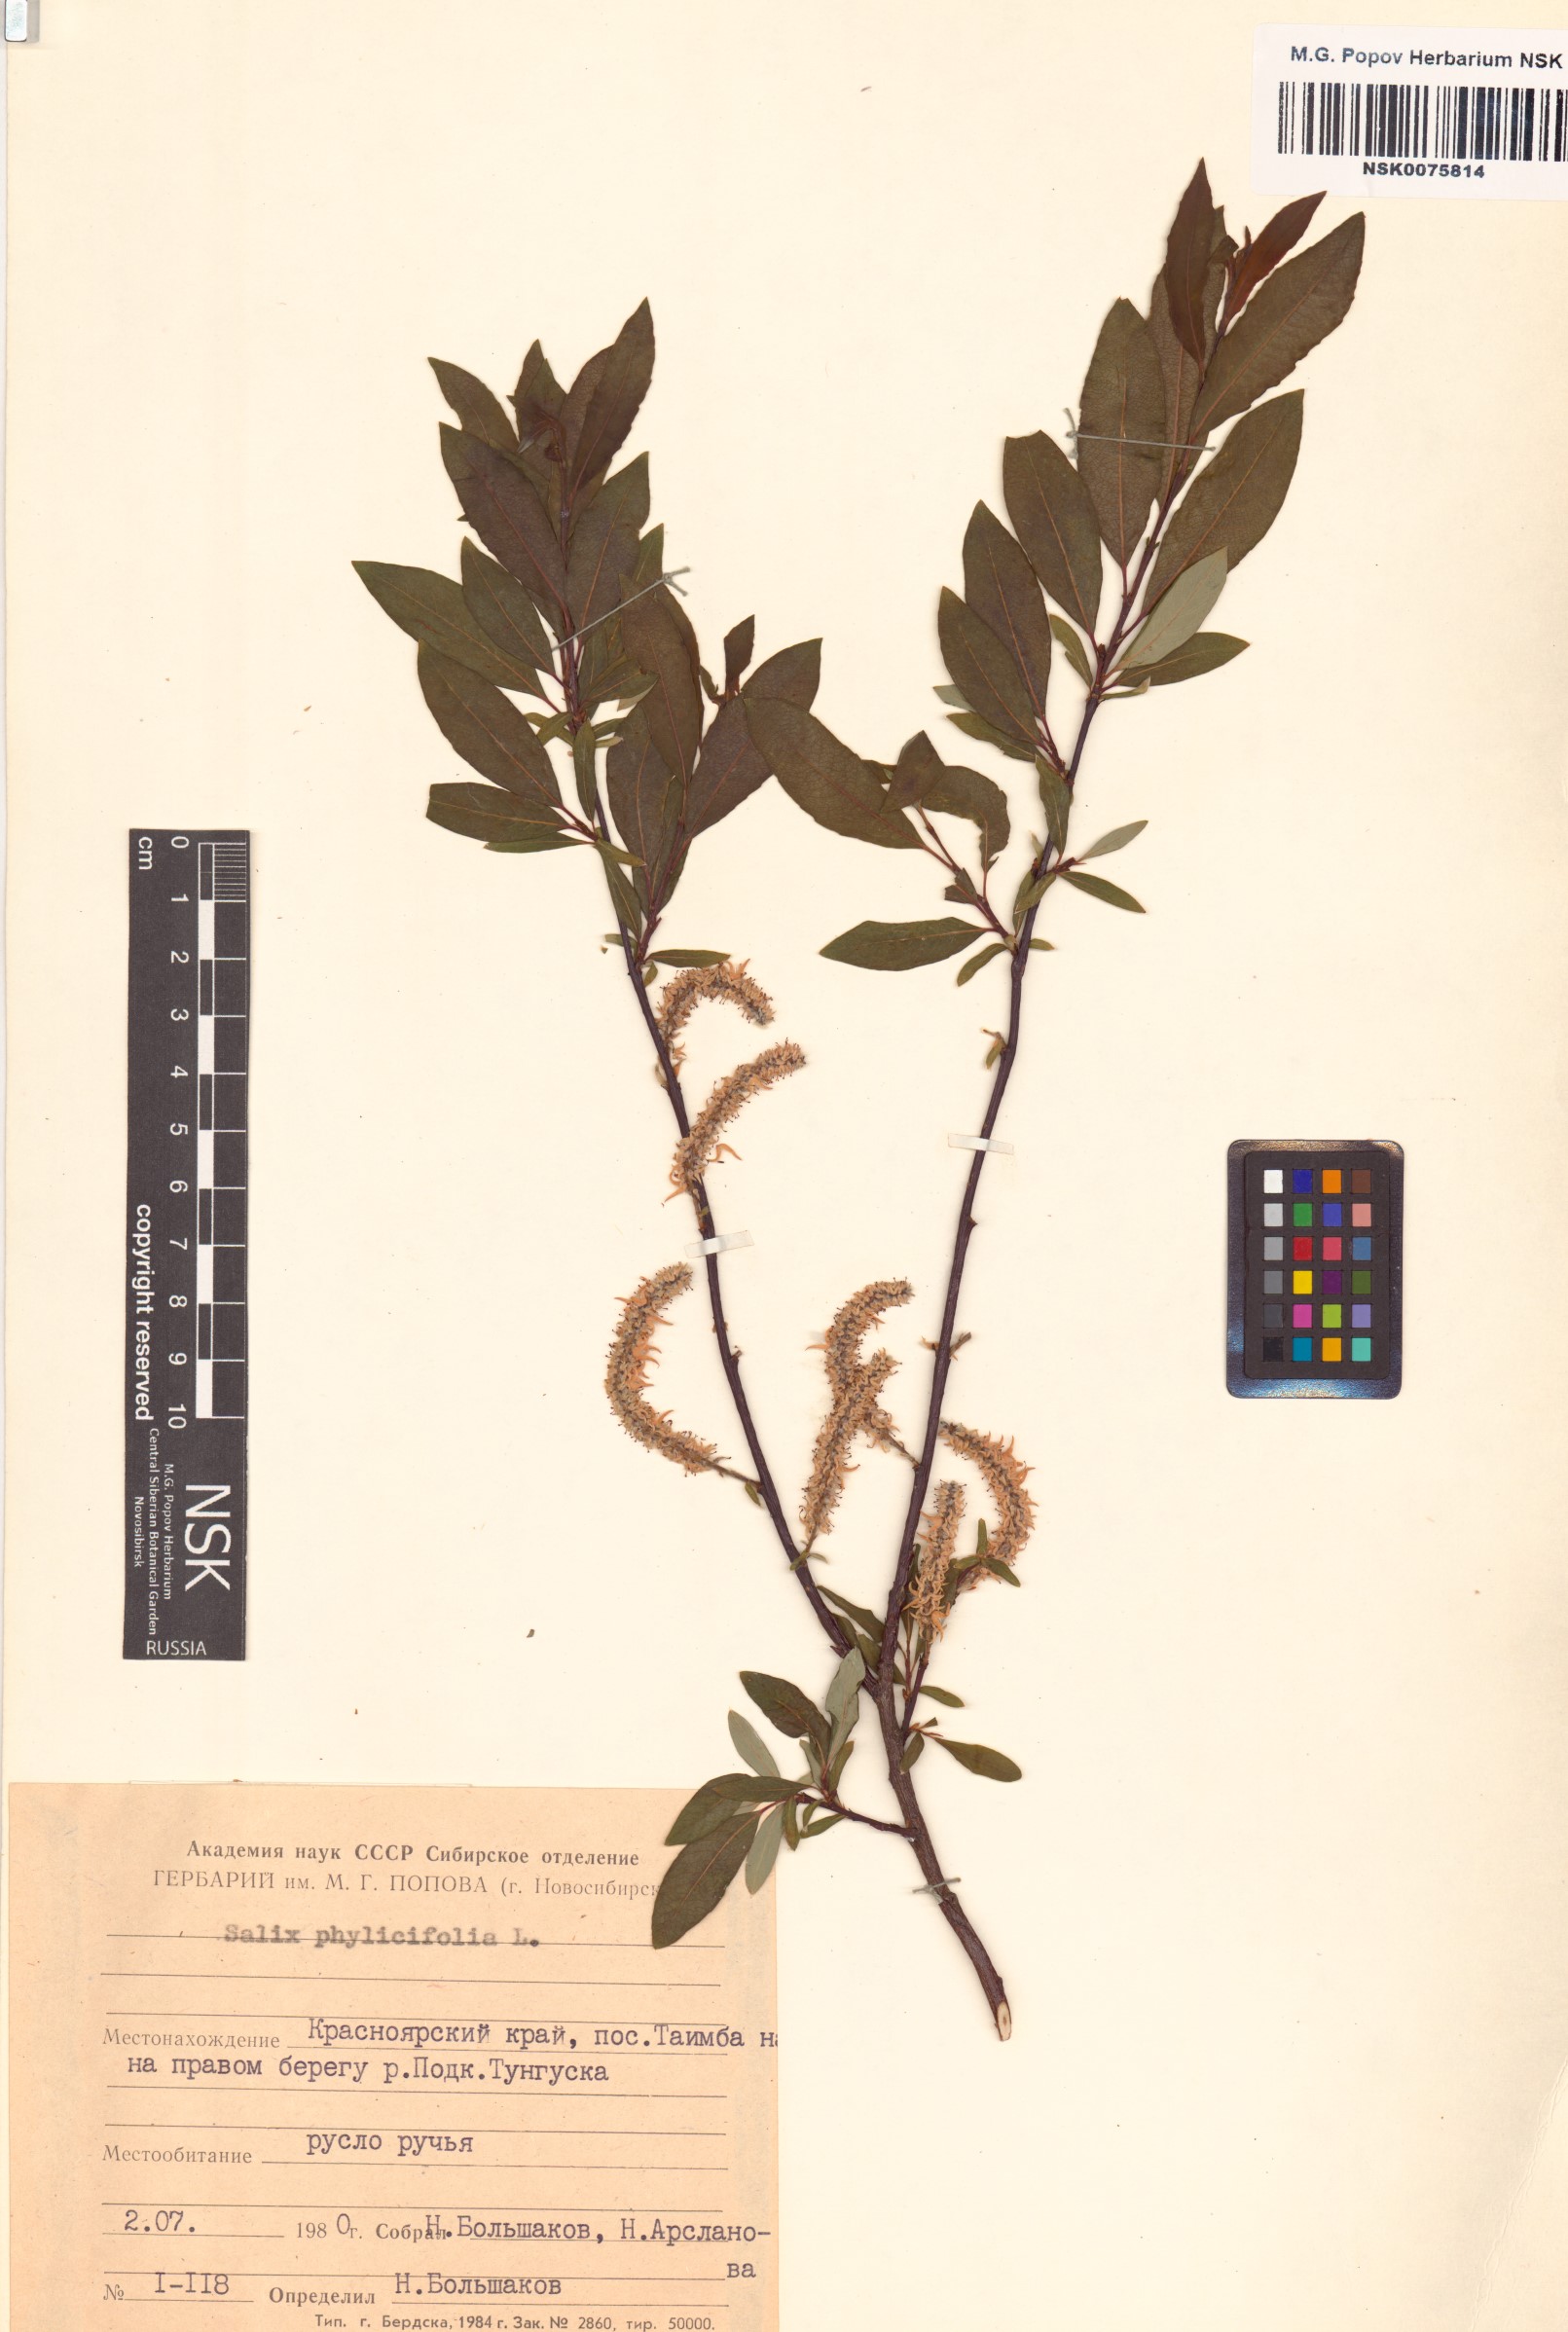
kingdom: Plantae
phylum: Tracheophyta
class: Magnoliopsida
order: Malpighiales
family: Salicaceae
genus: Salix
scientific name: Salix phylicifolia
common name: Tea-leaved willow
